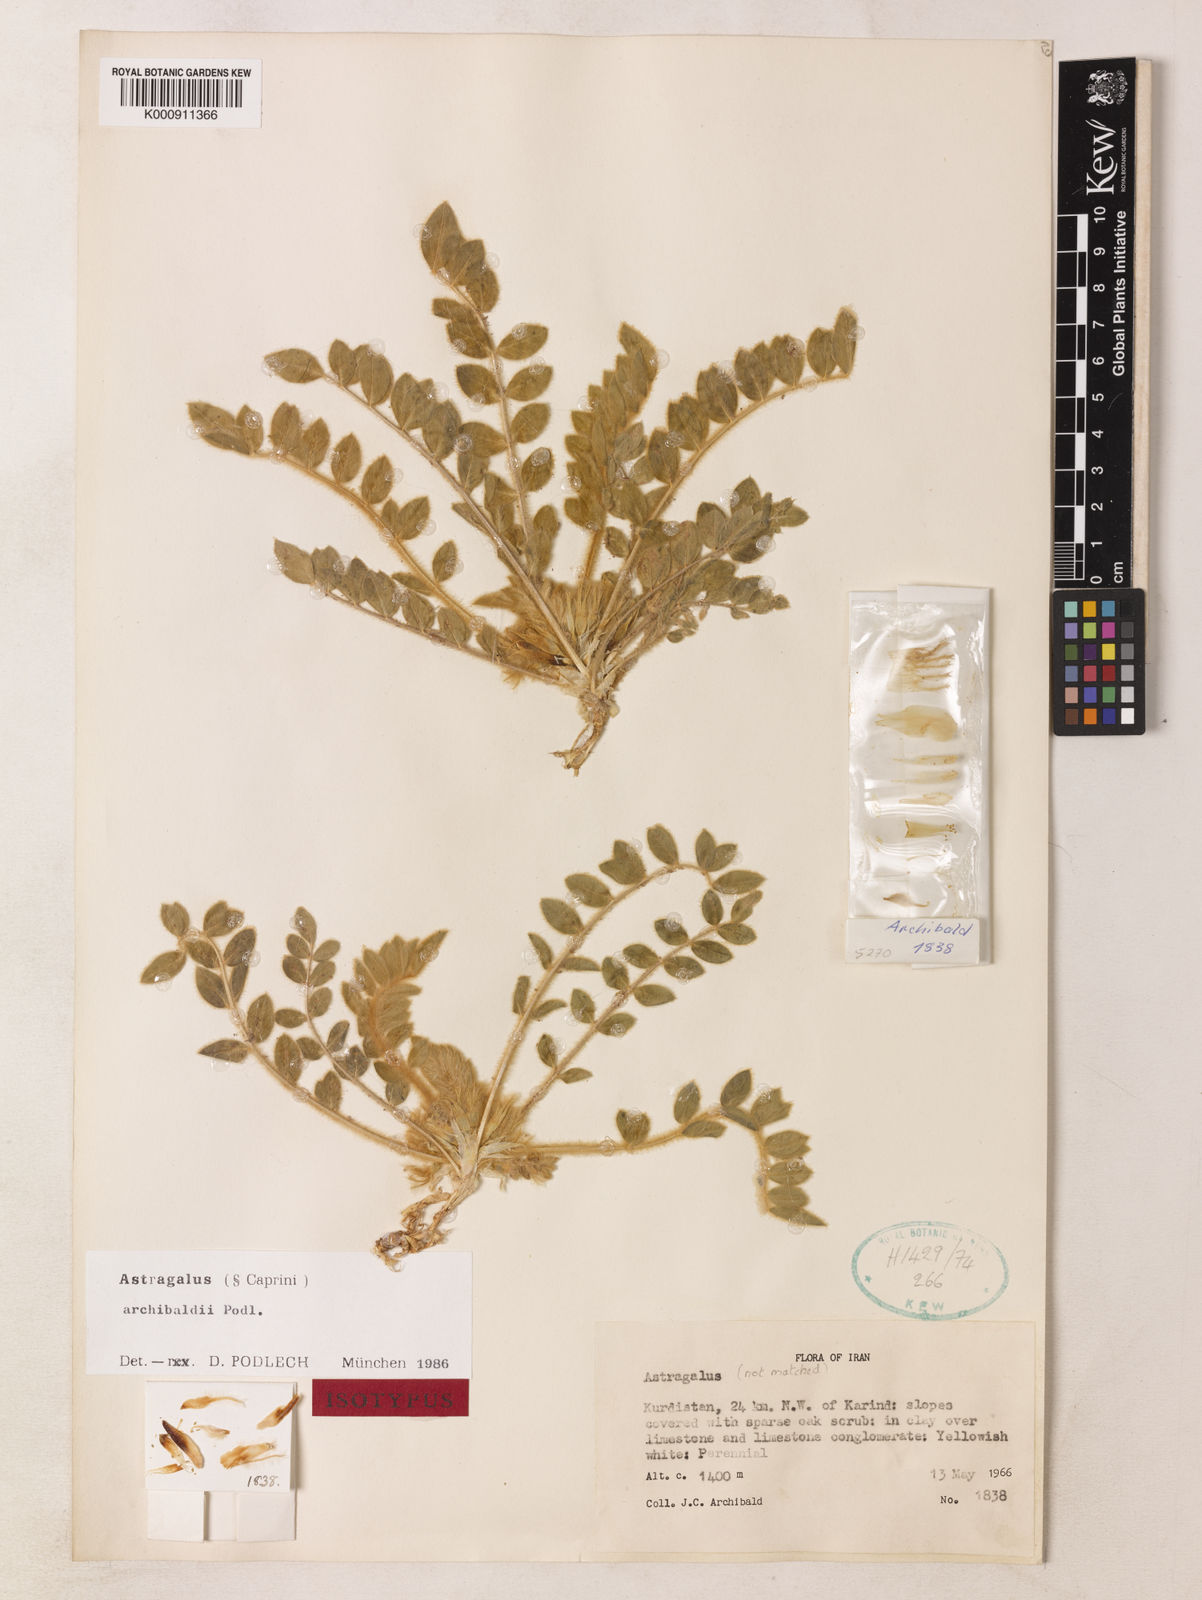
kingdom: Plantae
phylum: Tracheophyta
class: Magnoliopsida
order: Fabales
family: Fabaceae
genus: Astragalus
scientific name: Astragalus archibaldii
